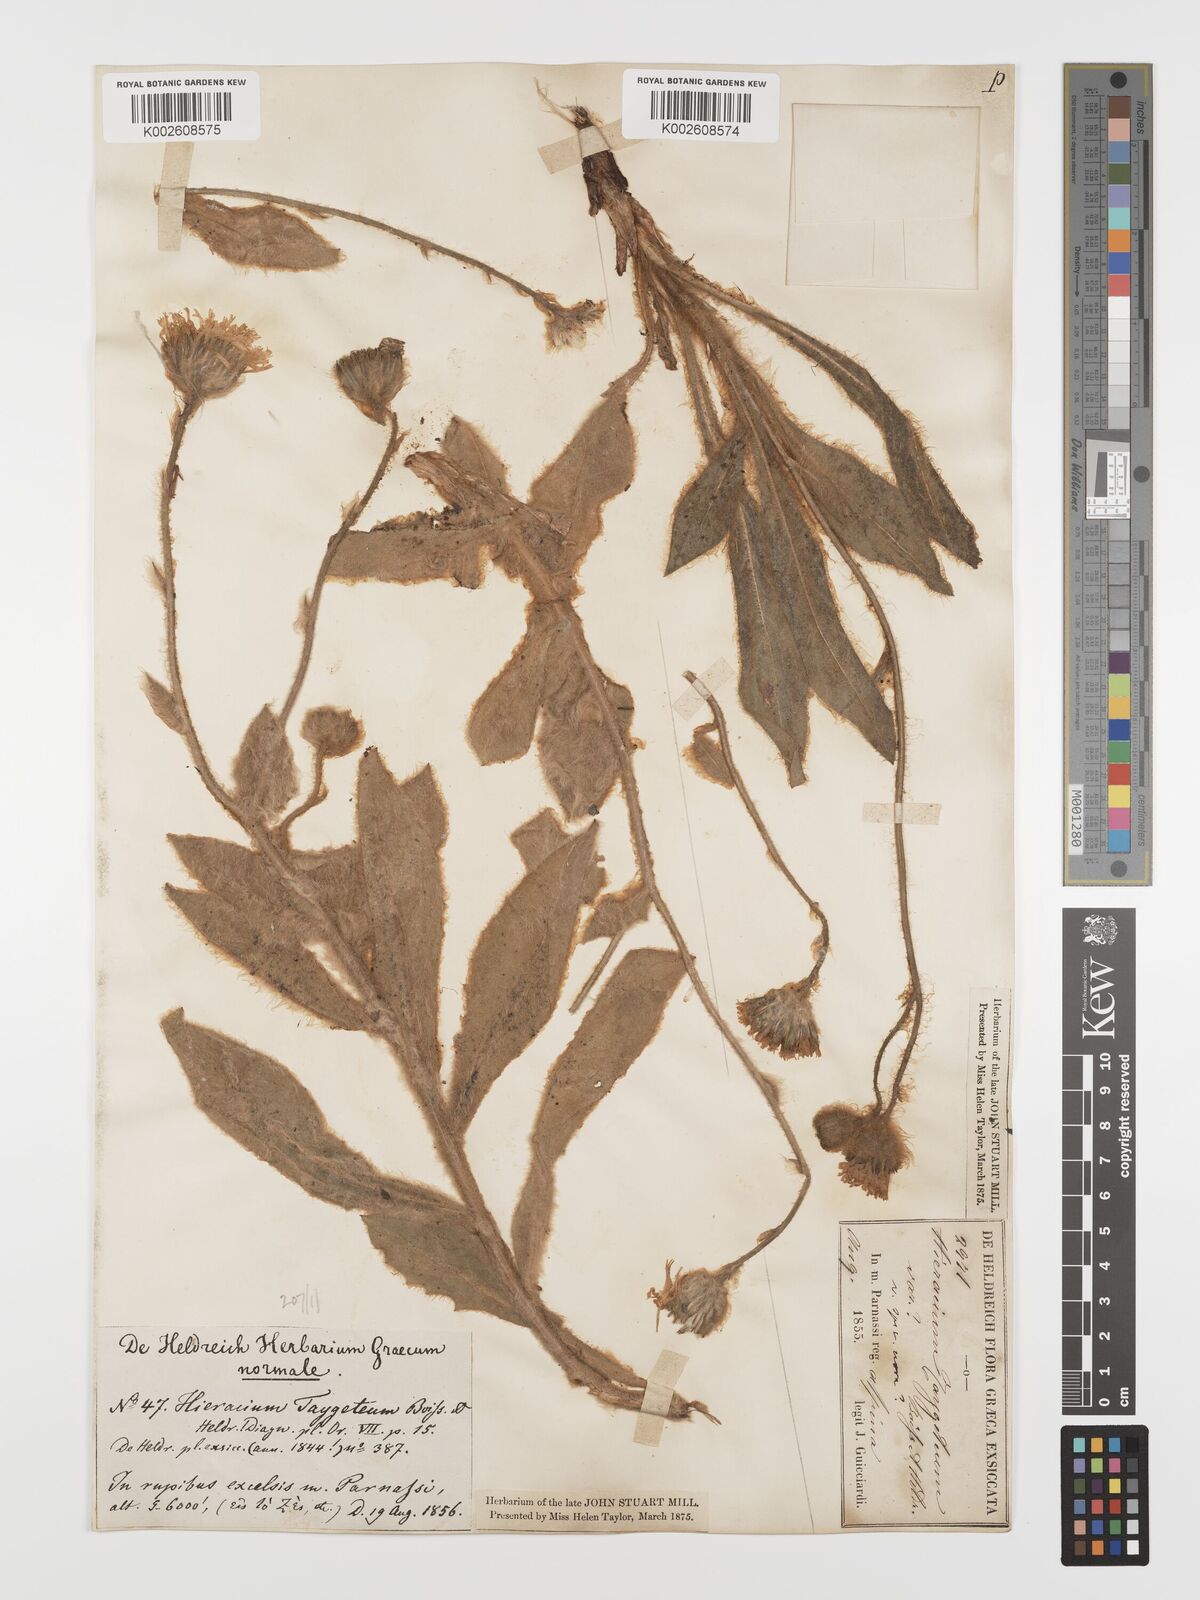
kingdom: Plantae
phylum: Tracheophyta
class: Magnoliopsida
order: Asterales
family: Asteraceae
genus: Hieracium
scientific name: Hieracium pannosum
